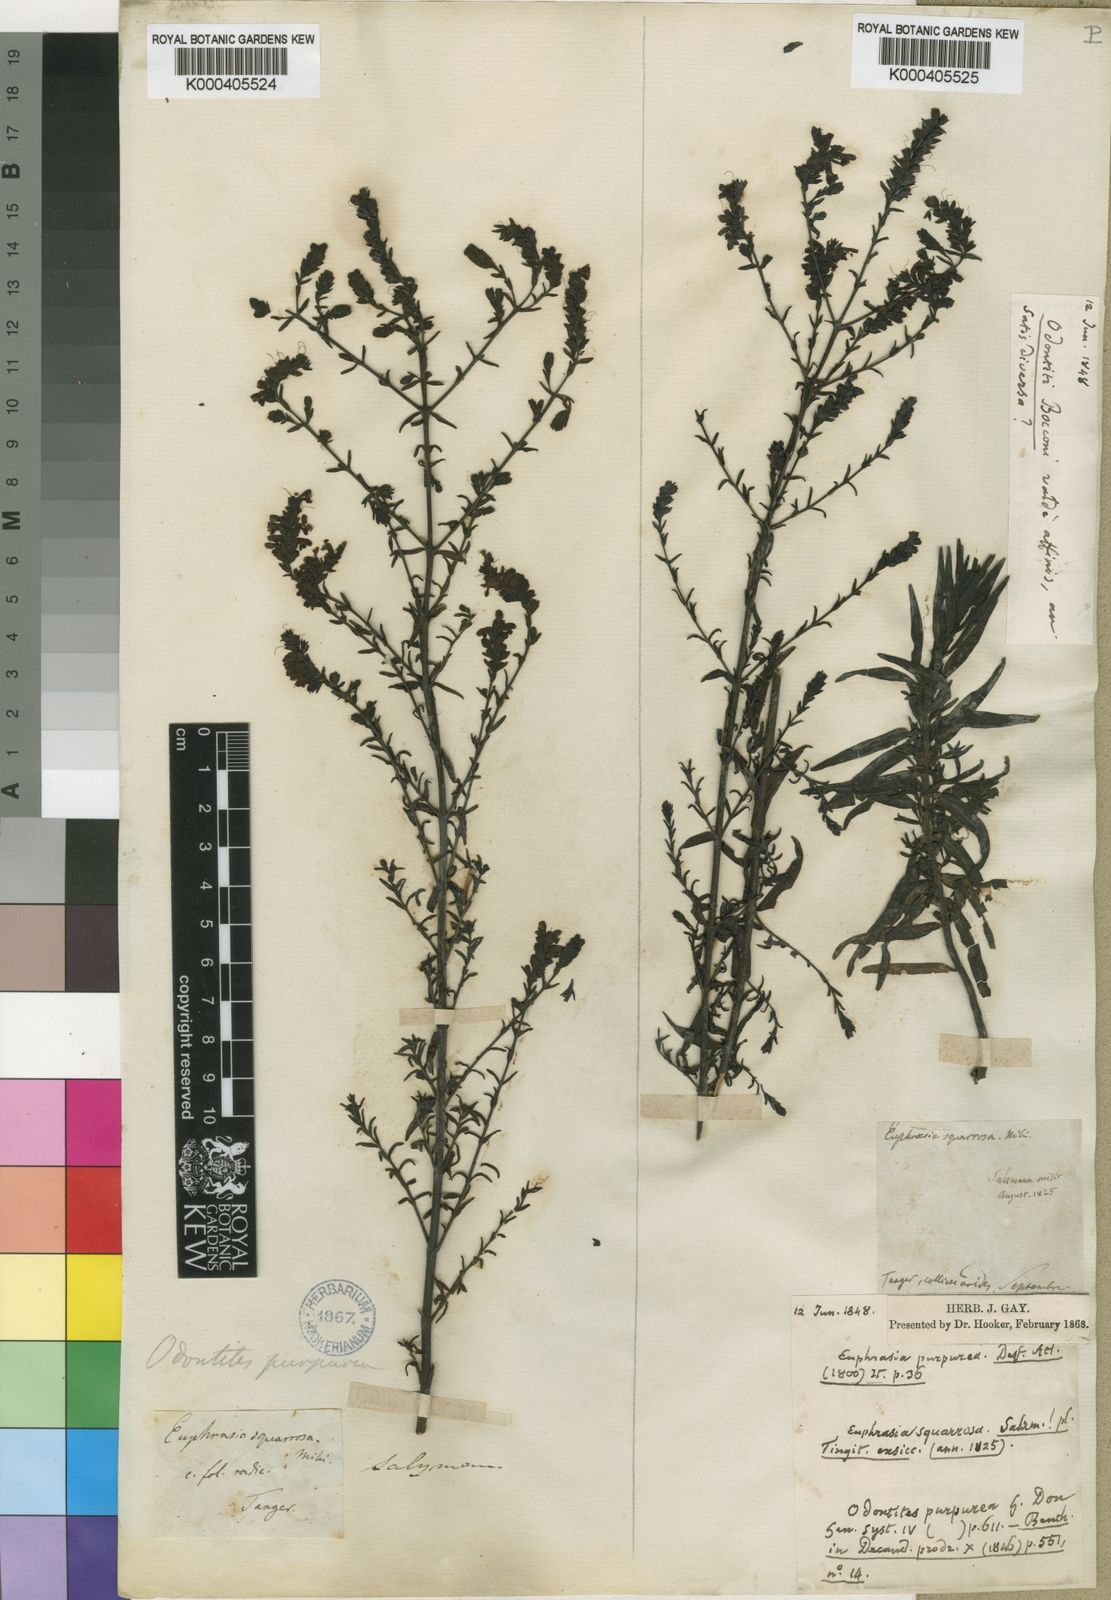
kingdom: Plantae
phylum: Tracheophyta
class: Magnoliopsida
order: Lamiales
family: Orobanchaceae
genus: Odontites
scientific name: Odontites purpureus
